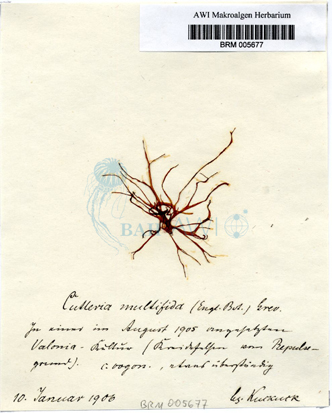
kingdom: Chromista
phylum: Ochrophyta
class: Phaeophyceae
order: Cutleriales
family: Cutleriaceae
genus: Cutleria
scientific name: Cutleria multifida
